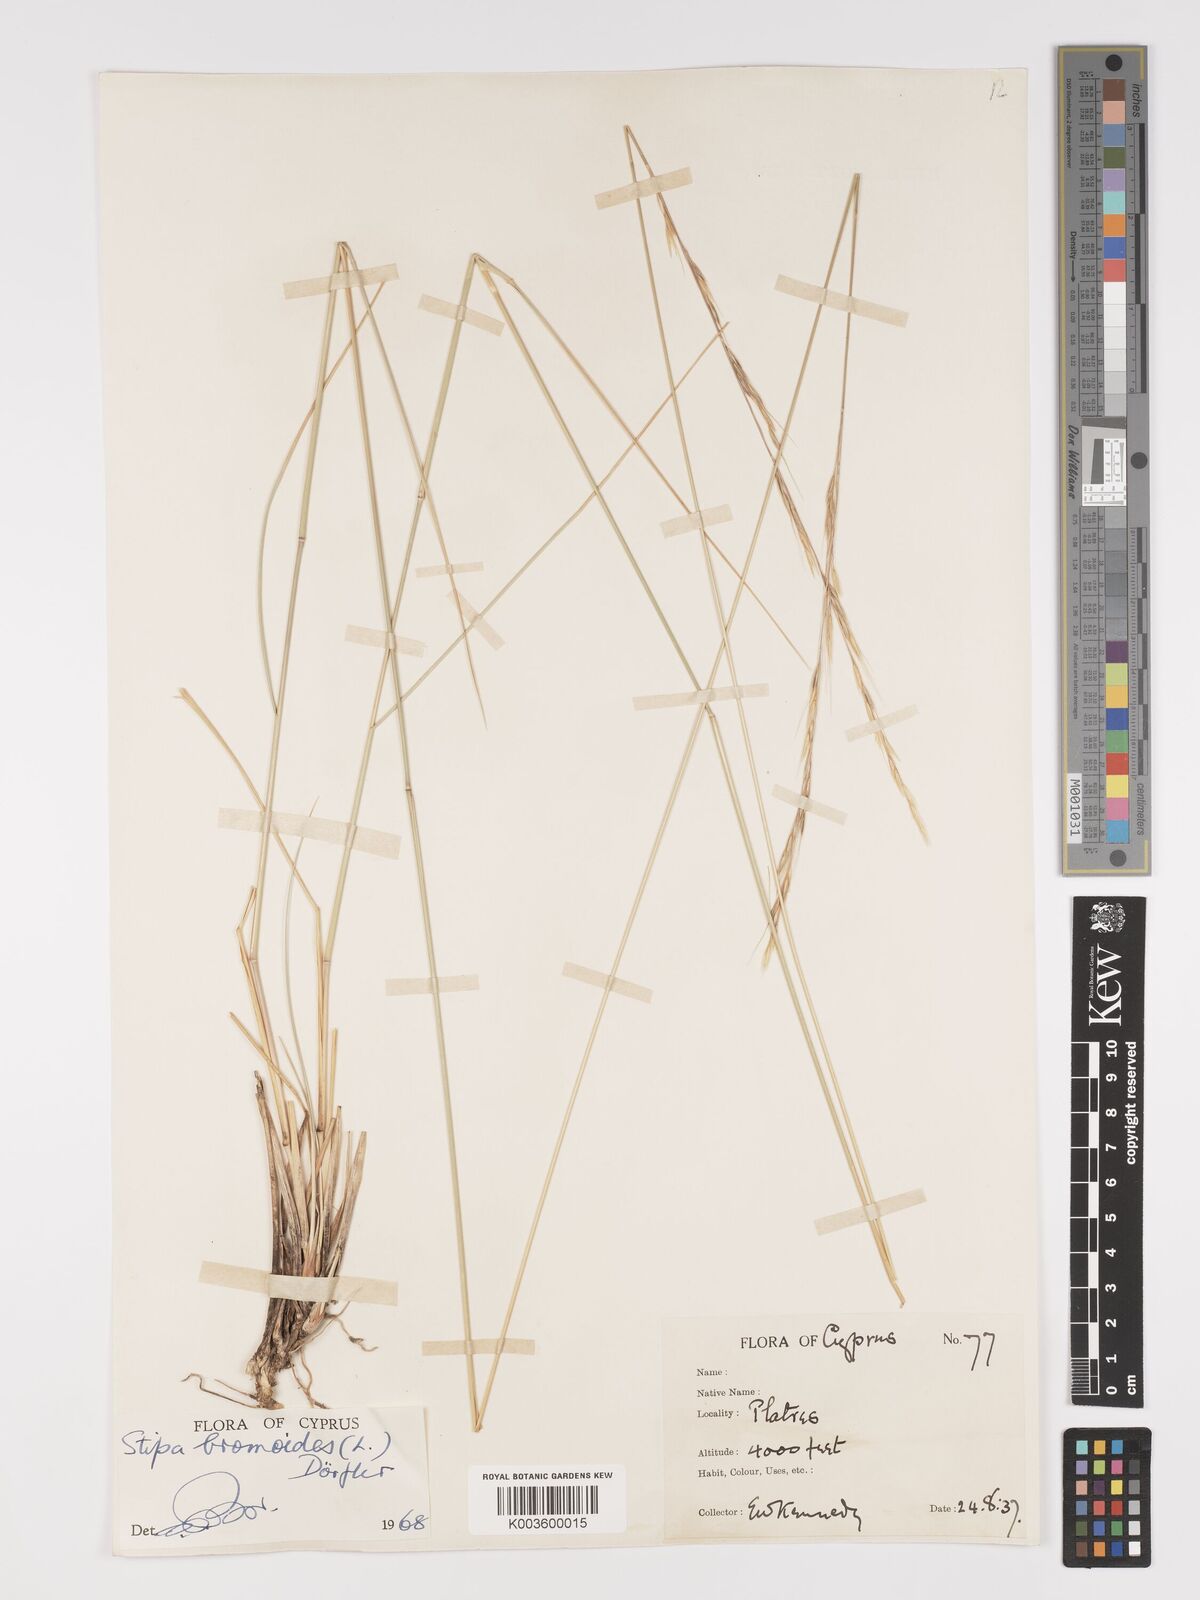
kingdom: Plantae
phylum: Tracheophyta
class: Liliopsida
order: Poales
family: Poaceae
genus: Achnatherum
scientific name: Achnatherum bromoides
